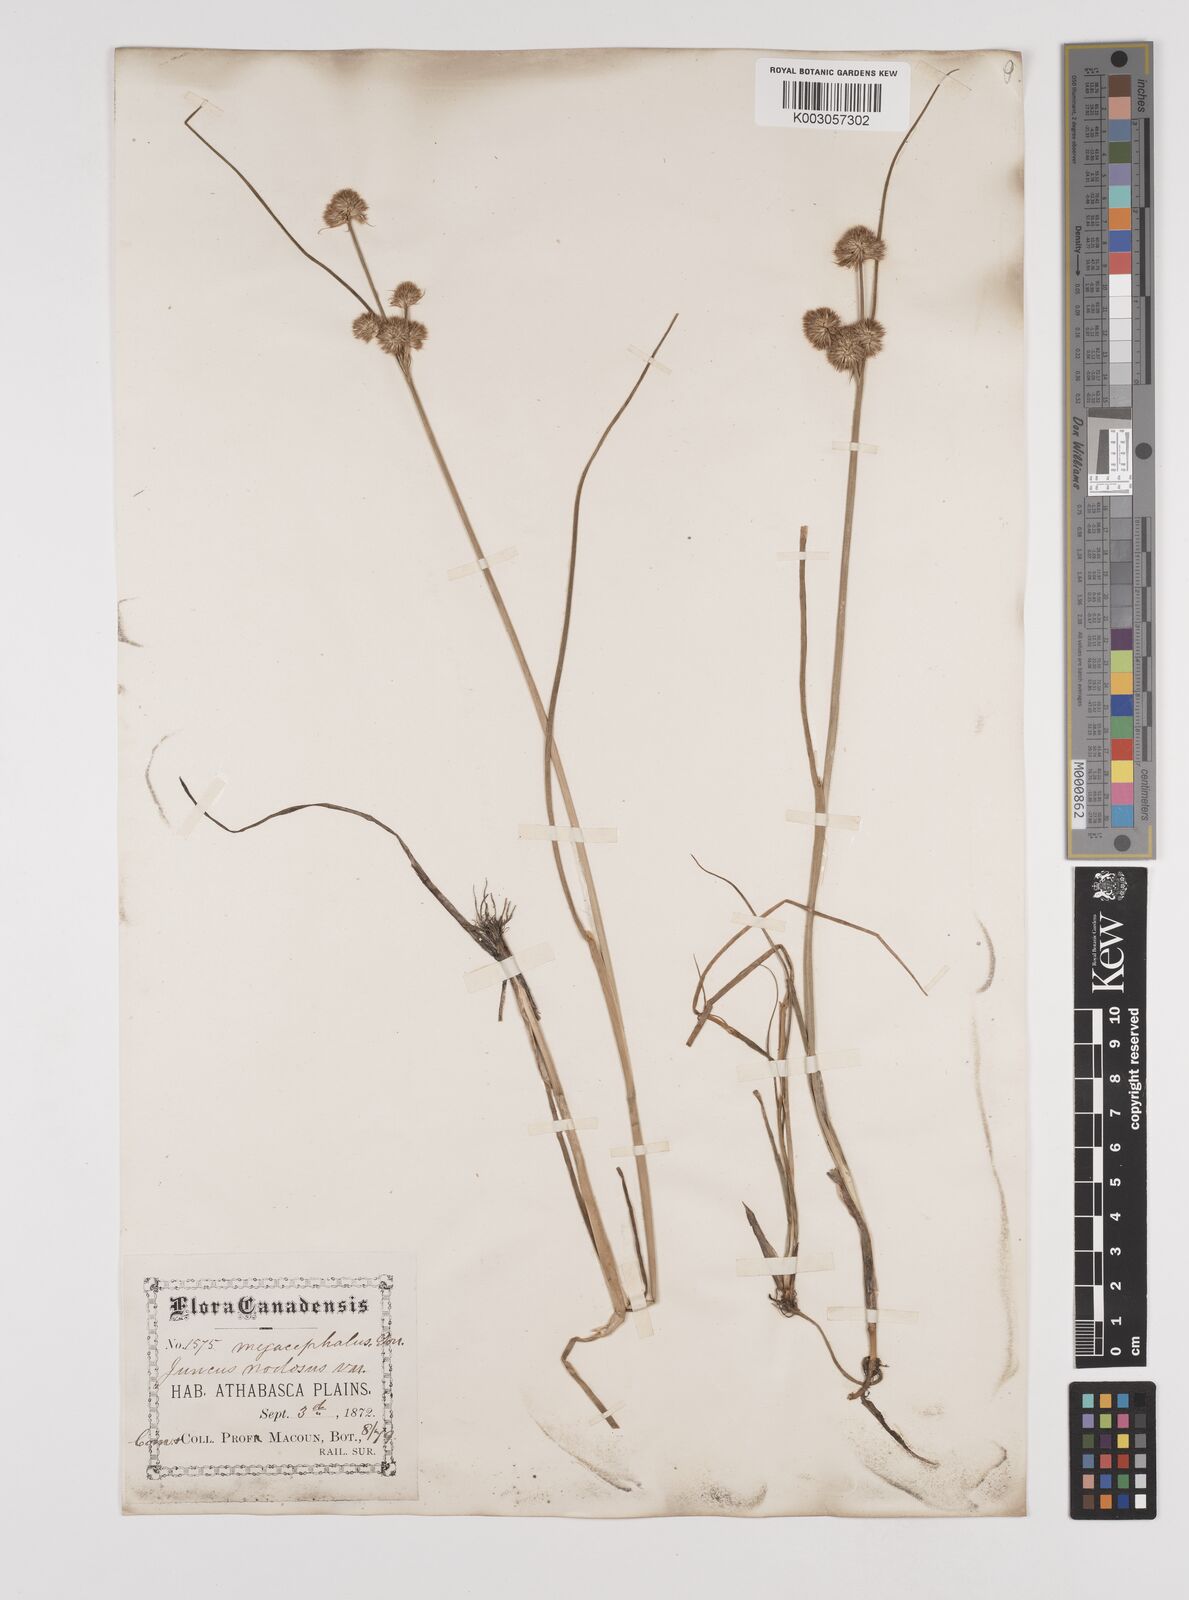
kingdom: Plantae
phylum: Tracheophyta
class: Liliopsida
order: Poales
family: Juncaceae
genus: Juncus
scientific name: Juncus nodosus
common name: Knotted rush
